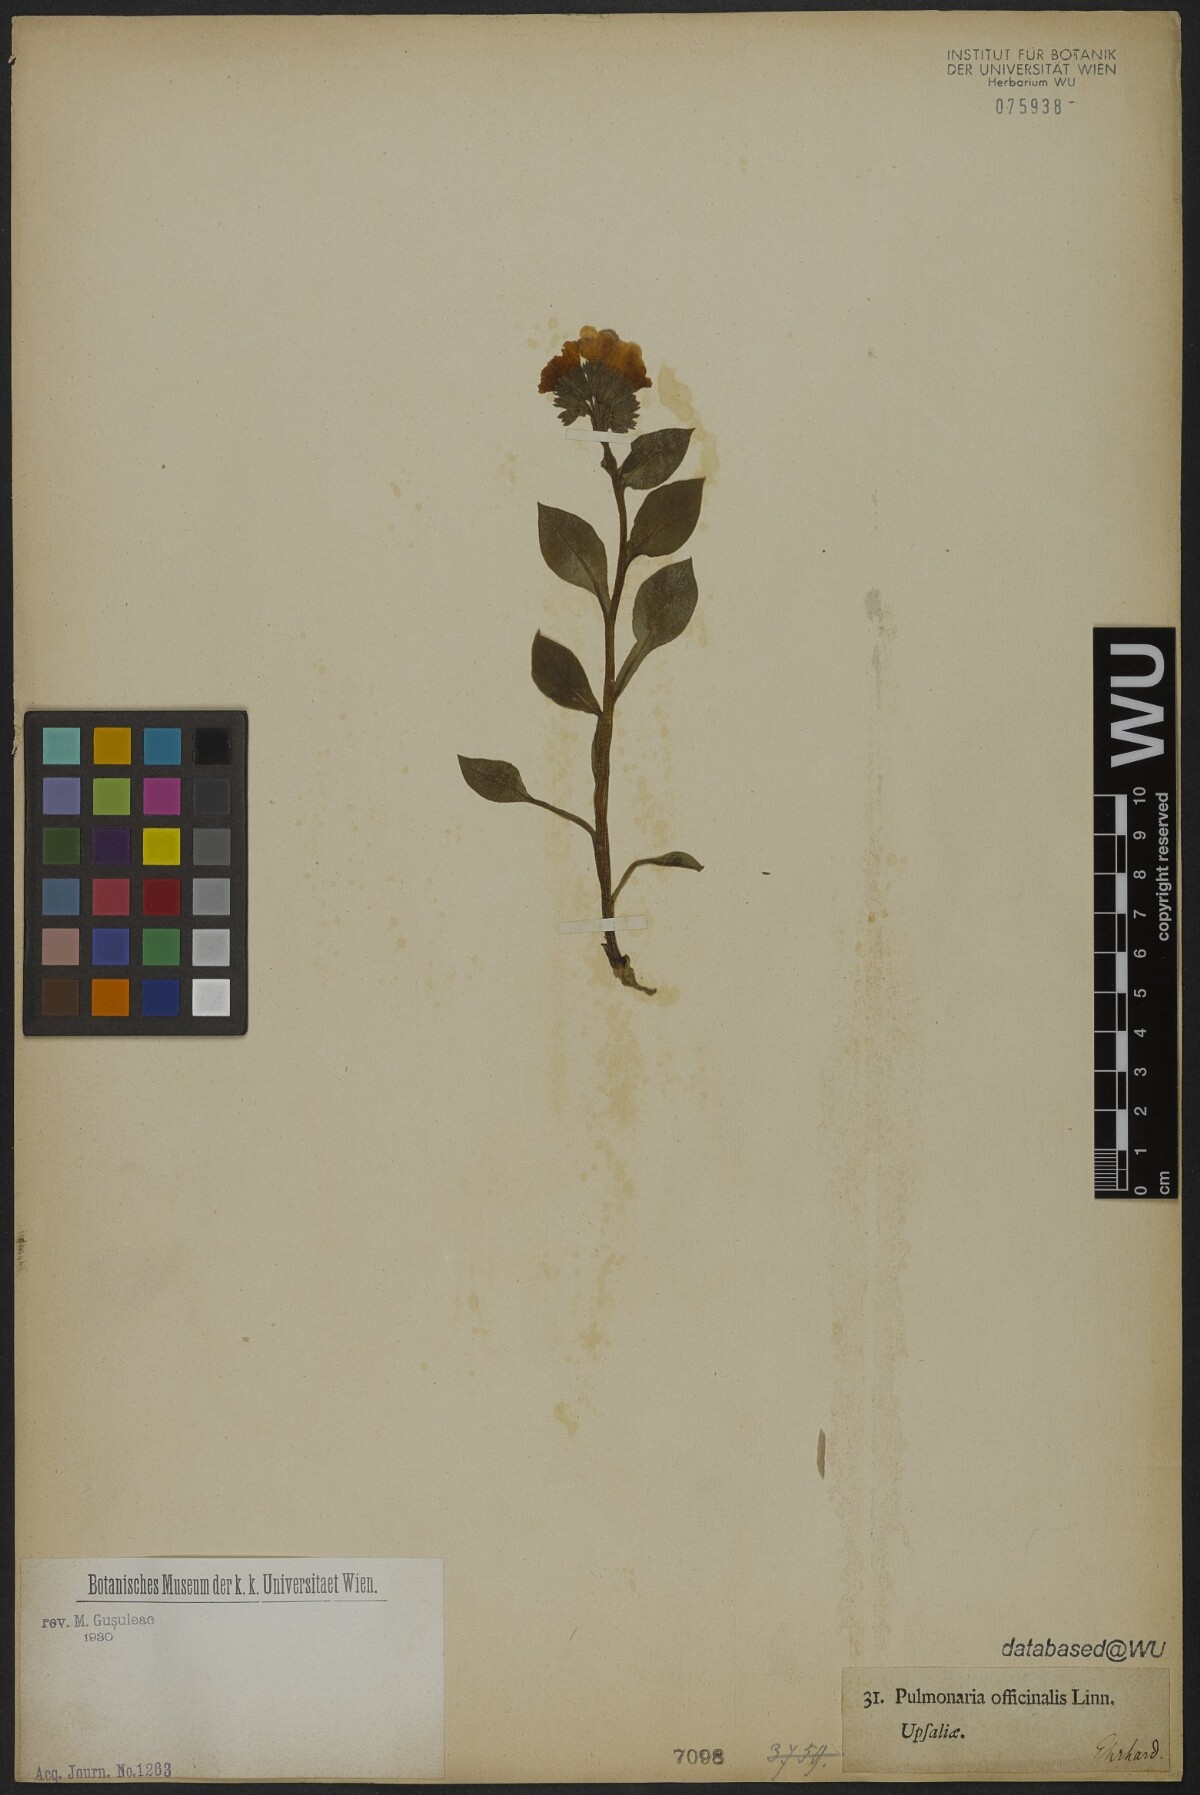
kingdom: Plantae
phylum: Tracheophyta
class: Magnoliopsida
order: Boraginales
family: Boraginaceae
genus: Pulmonaria
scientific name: Pulmonaria officinalis
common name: Lungwort
